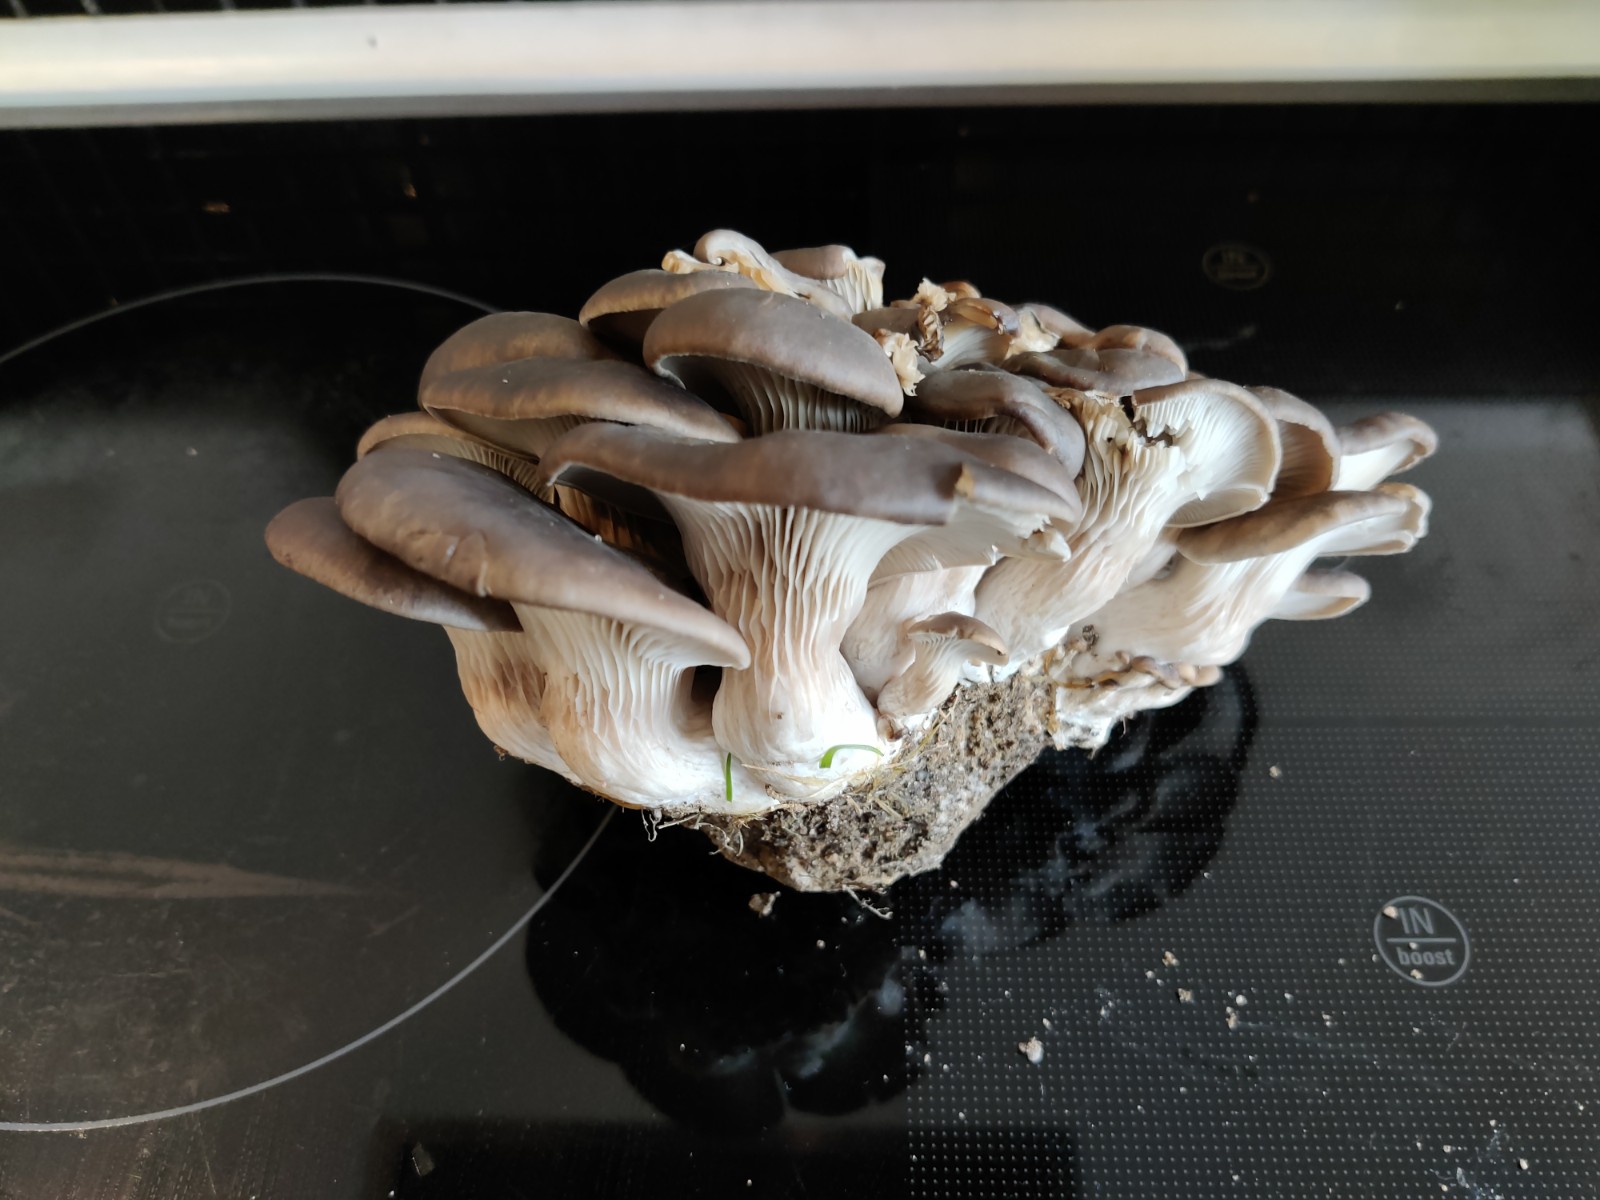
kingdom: Fungi
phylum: Basidiomycota
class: Agaricomycetes
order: Agaricales
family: Pleurotaceae
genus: Pleurotus
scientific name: Pleurotus ostreatus
